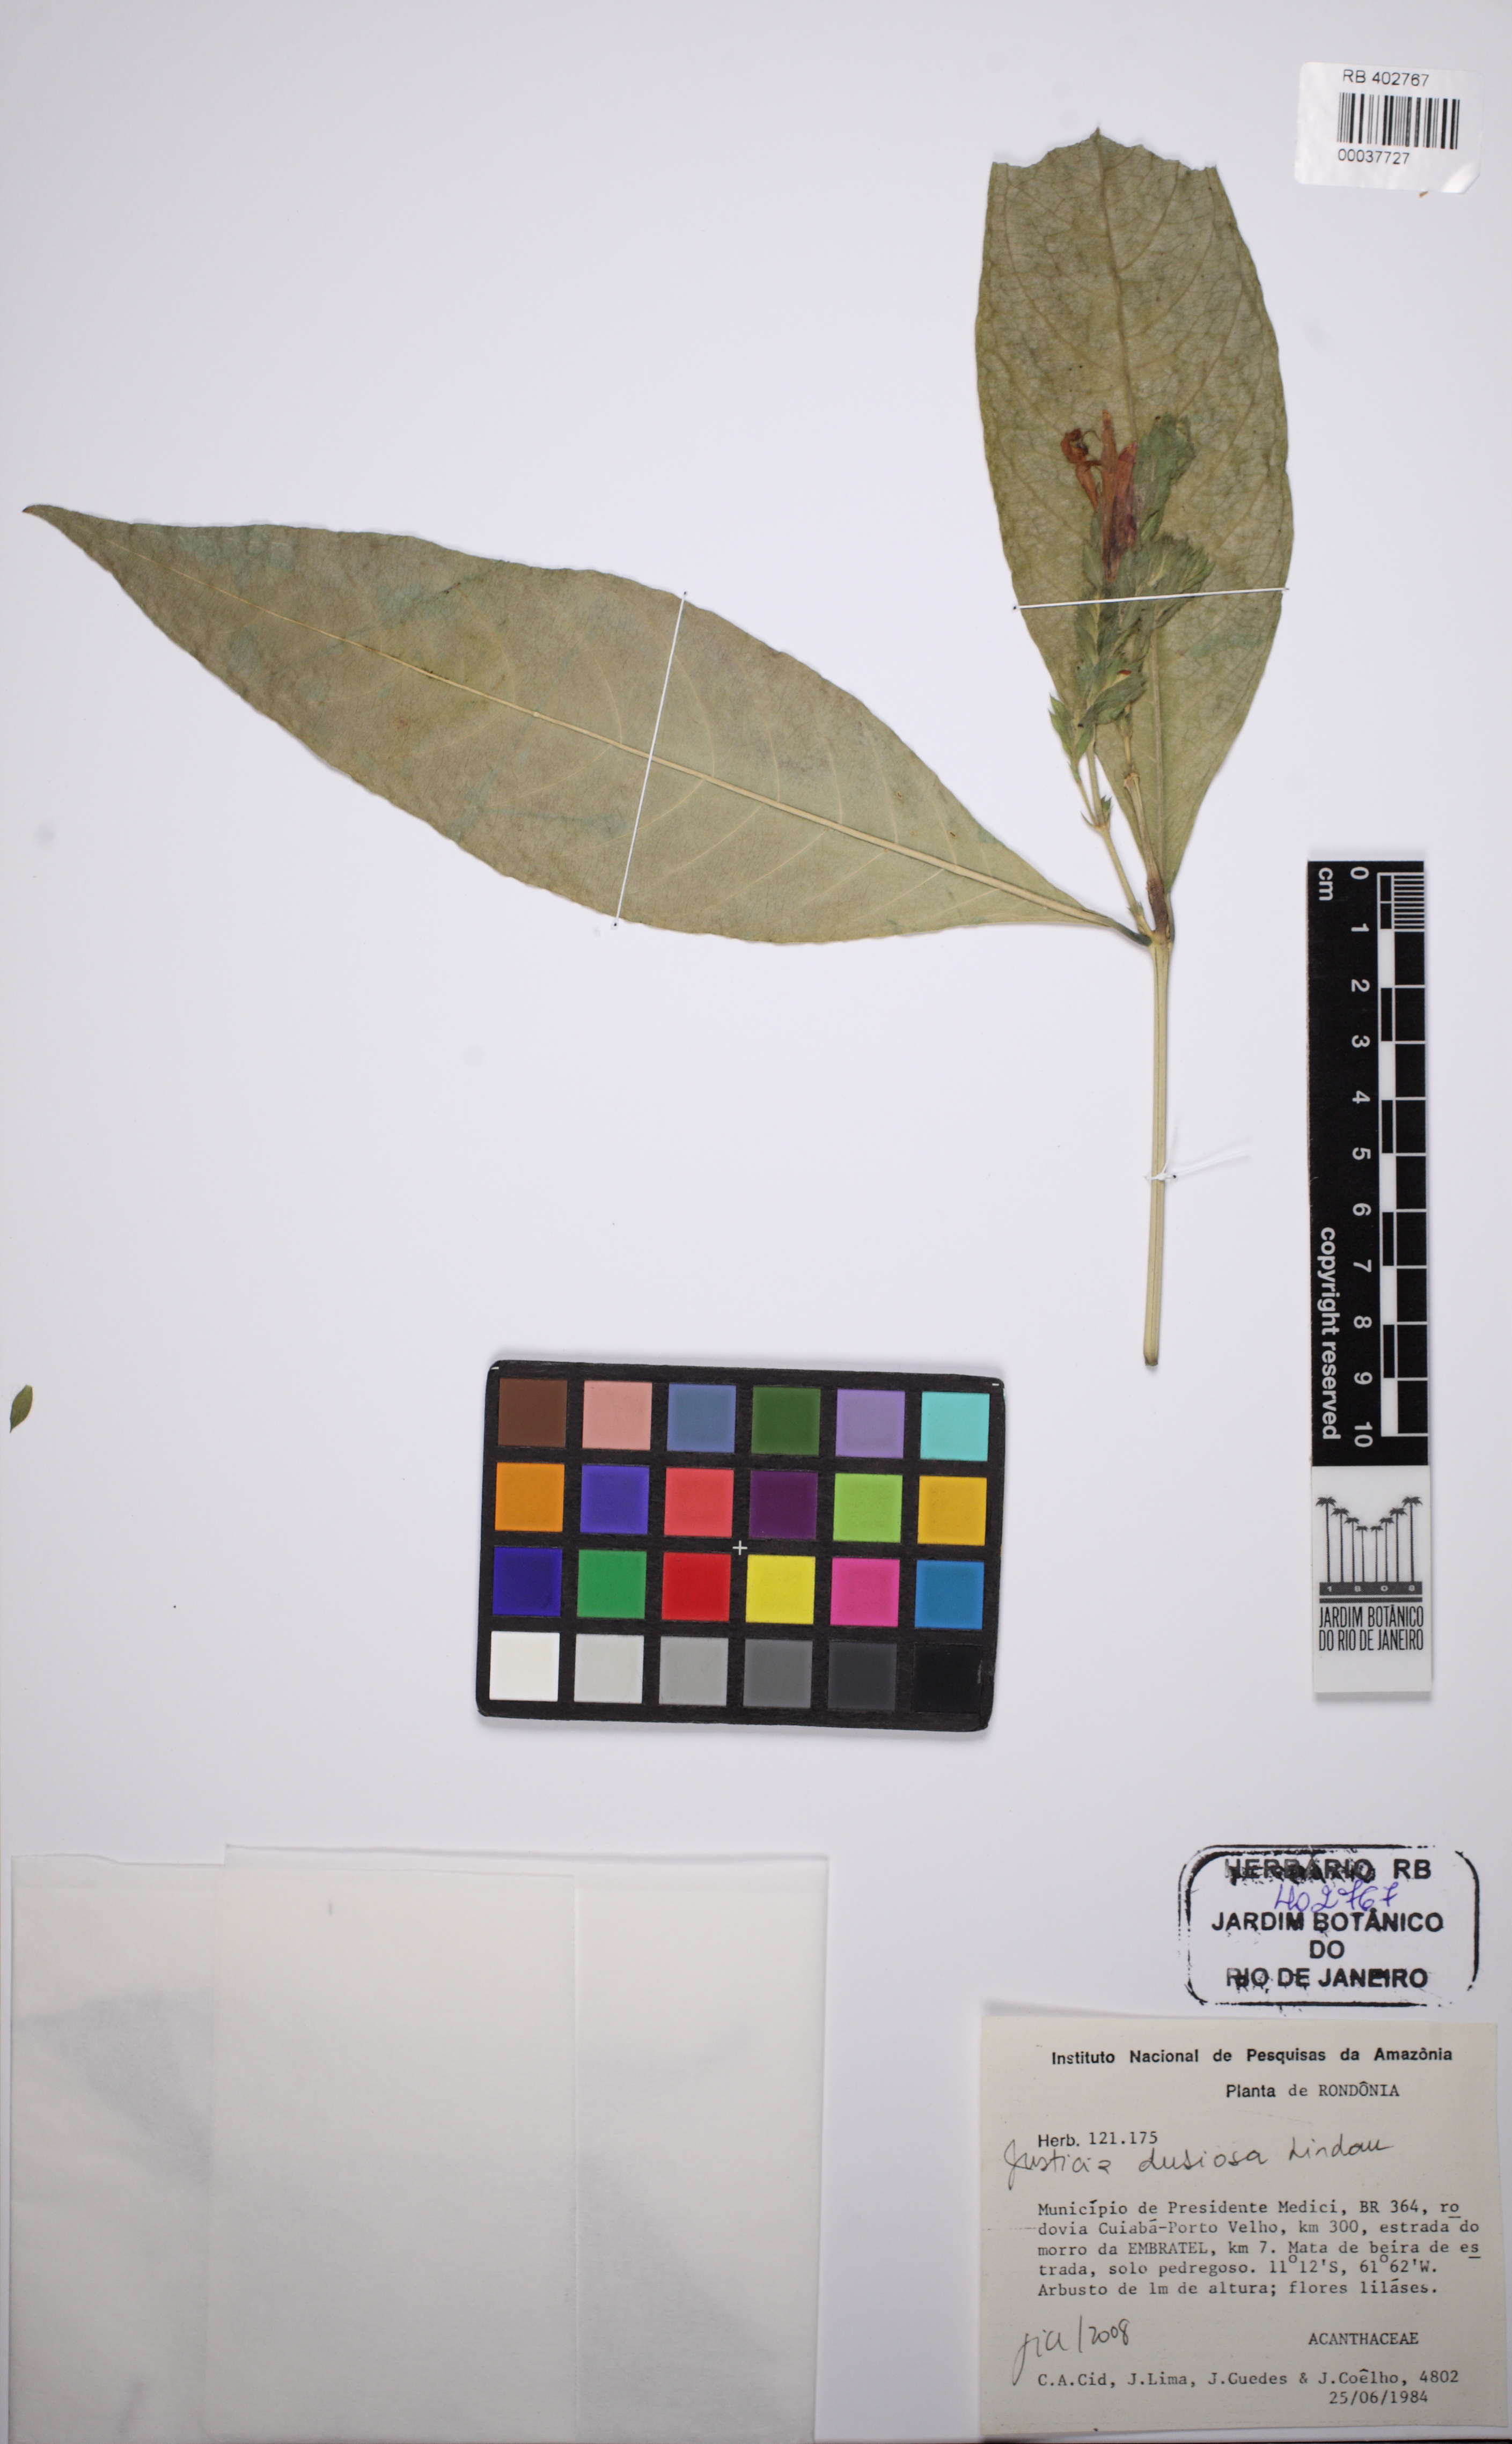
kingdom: Plantae
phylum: Tracheophyta
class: Magnoliopsida
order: Lamiales
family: Acanthaceae
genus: Justicia
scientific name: Justicia mesetarum
